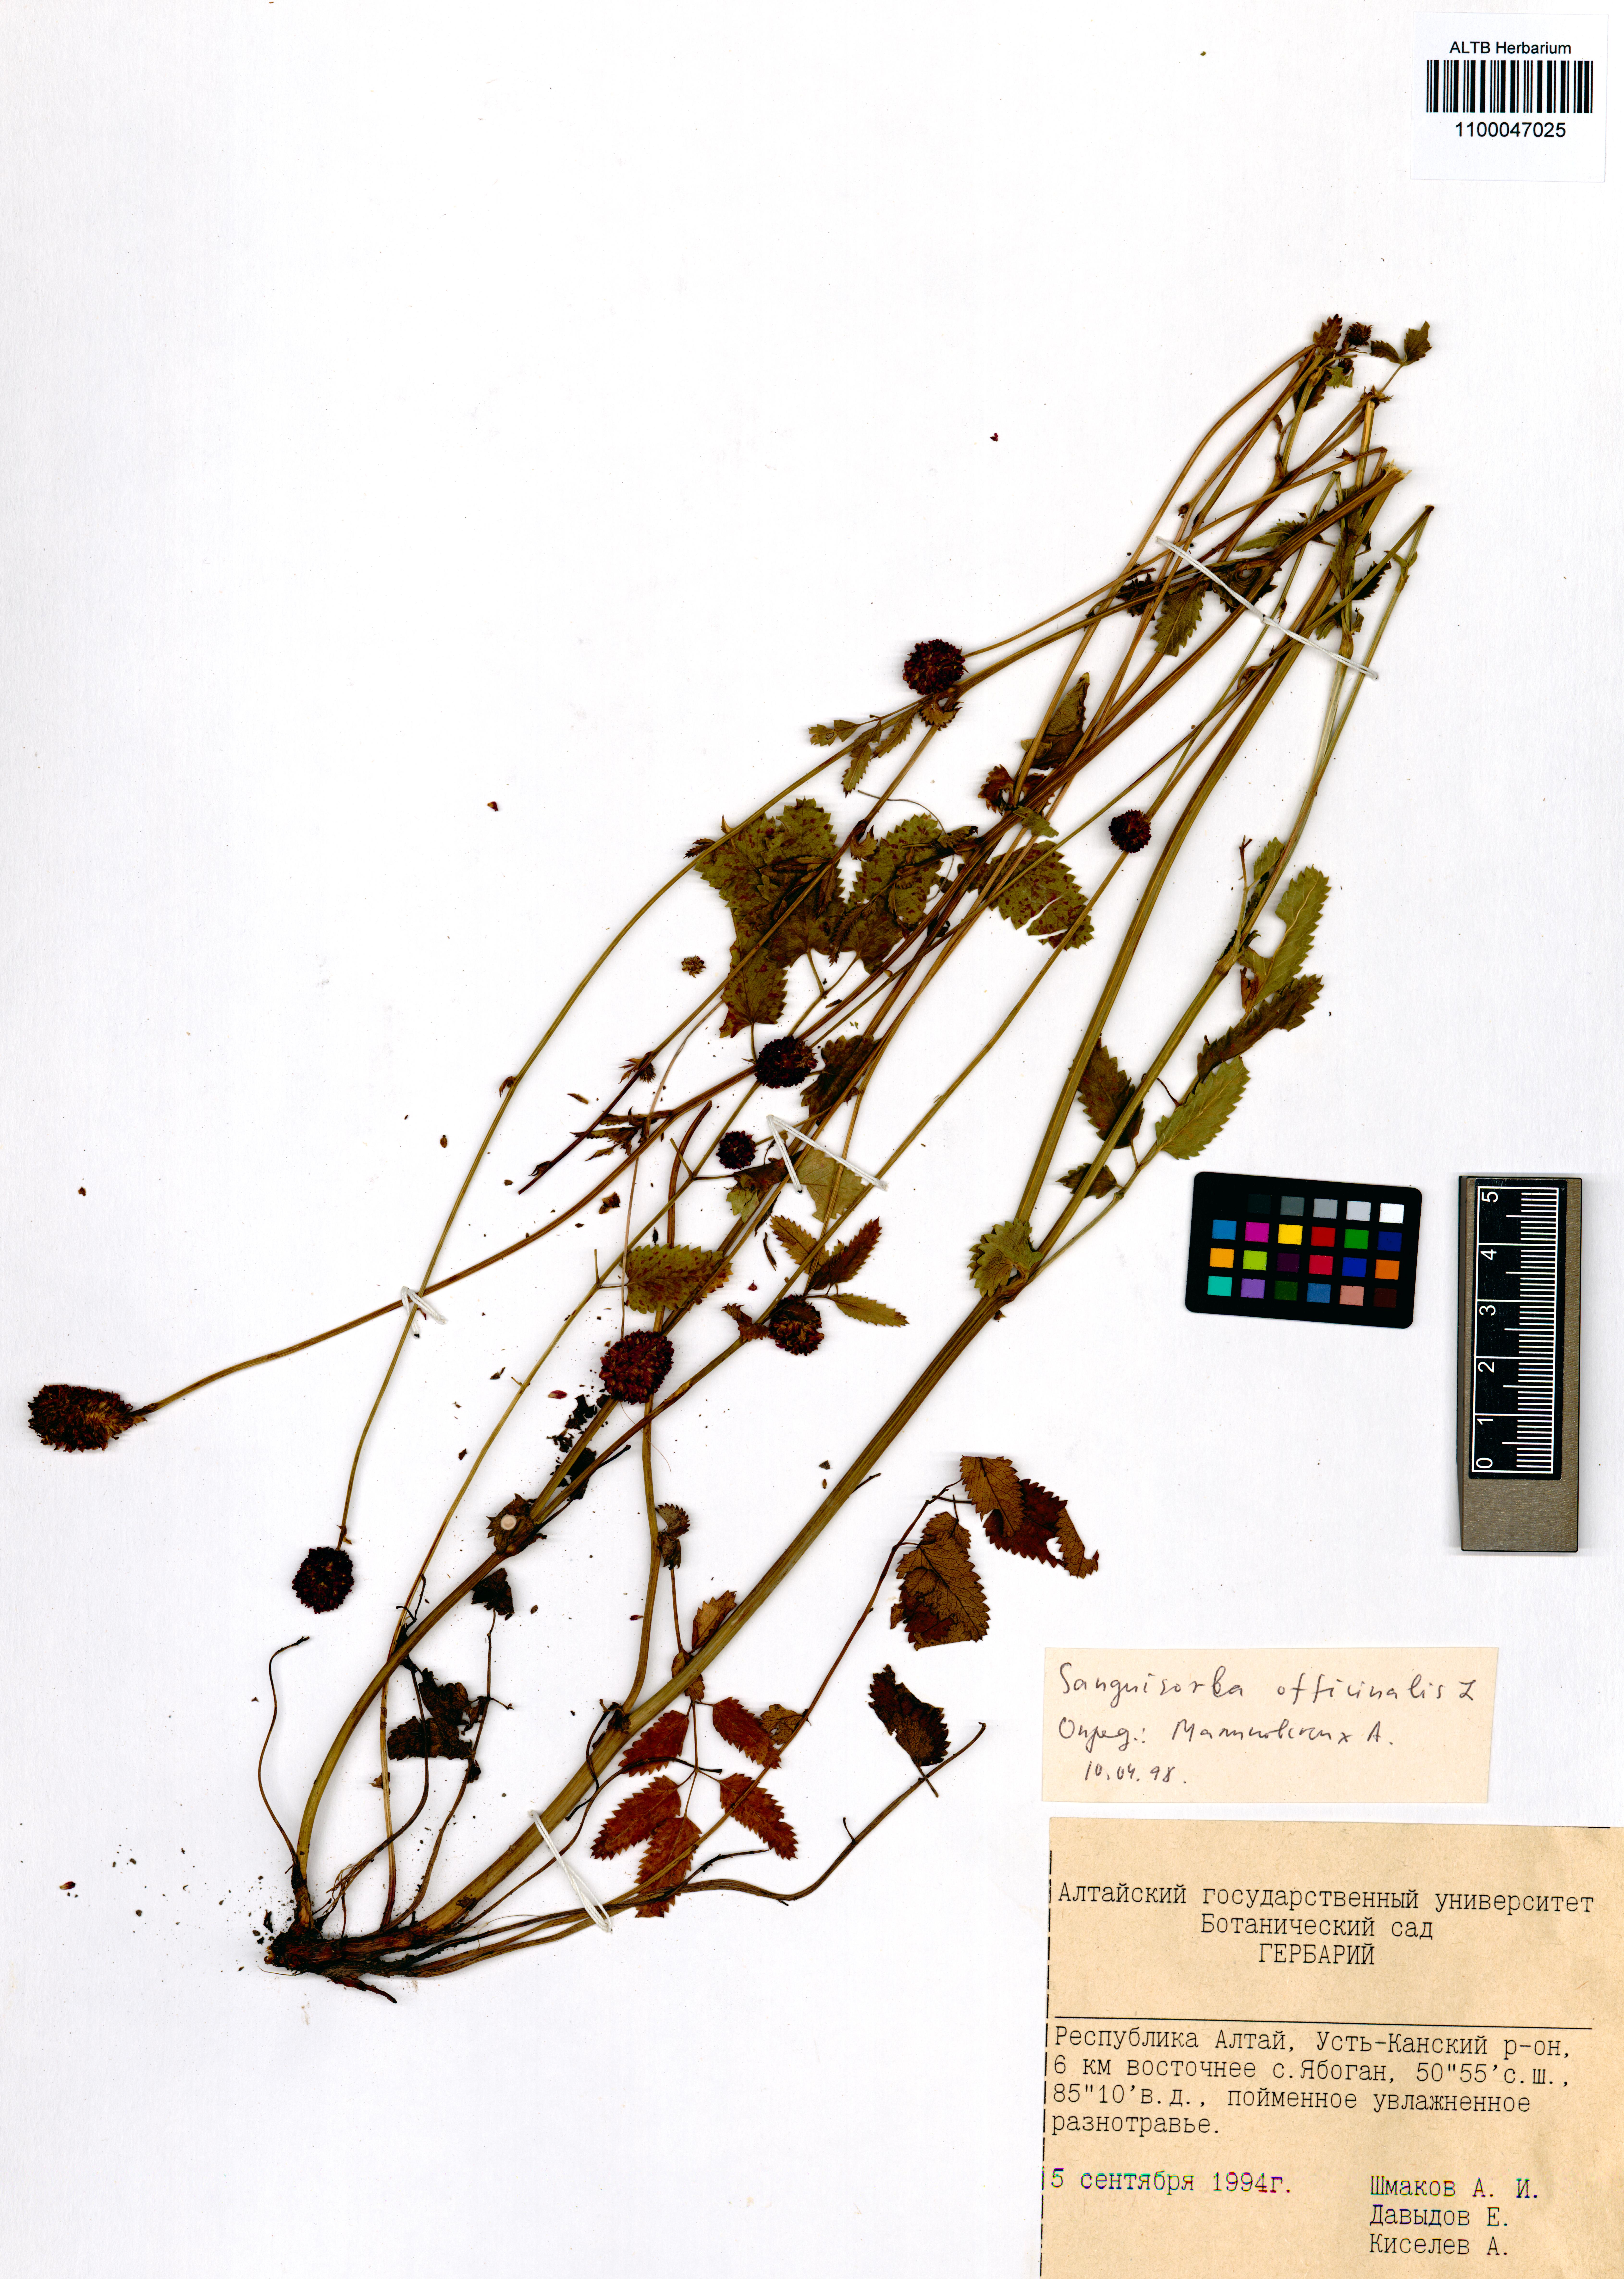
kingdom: Plantae
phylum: Tracheophyta
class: Magnoliopsida
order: Rosales
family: Rosaceae
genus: Sanguisorba
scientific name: Sanguisorba officinalis
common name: Great burnet
